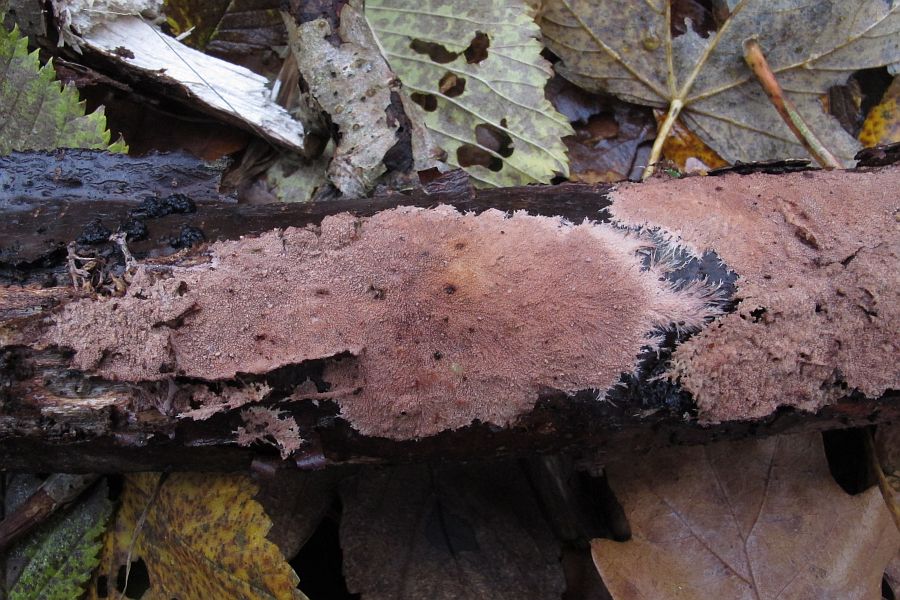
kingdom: Fungi
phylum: Basidiomycota
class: Agaricomycetes
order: Polyporales
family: Steccherinaceae
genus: Steccherinum
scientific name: Steccherinum fimbriatum
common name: trådet skønpig
